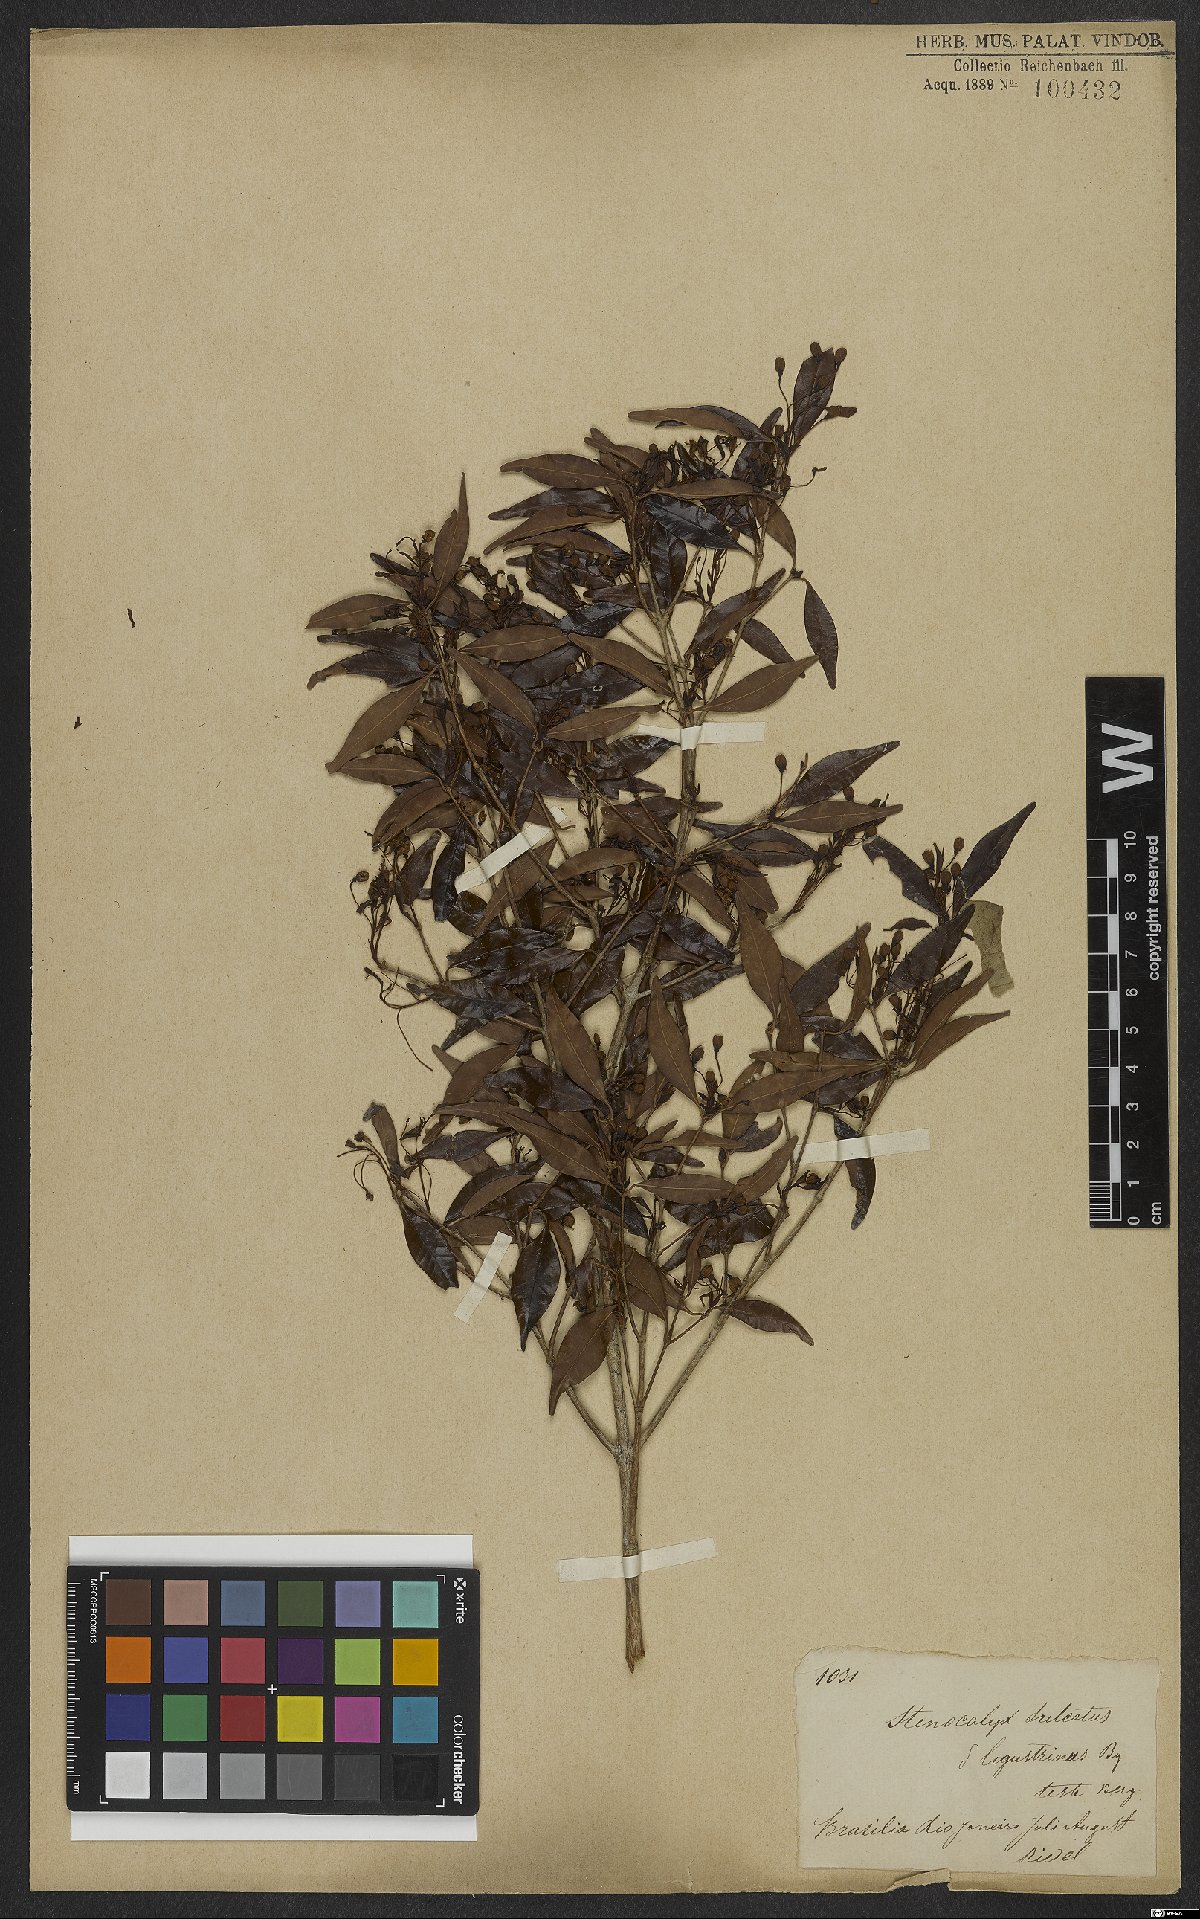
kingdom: Plantae
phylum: Tracheophyta
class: Magnoliopsida
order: Myrtales
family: Myrtaceae
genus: Eugenia
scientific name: Eugenia sulcata
